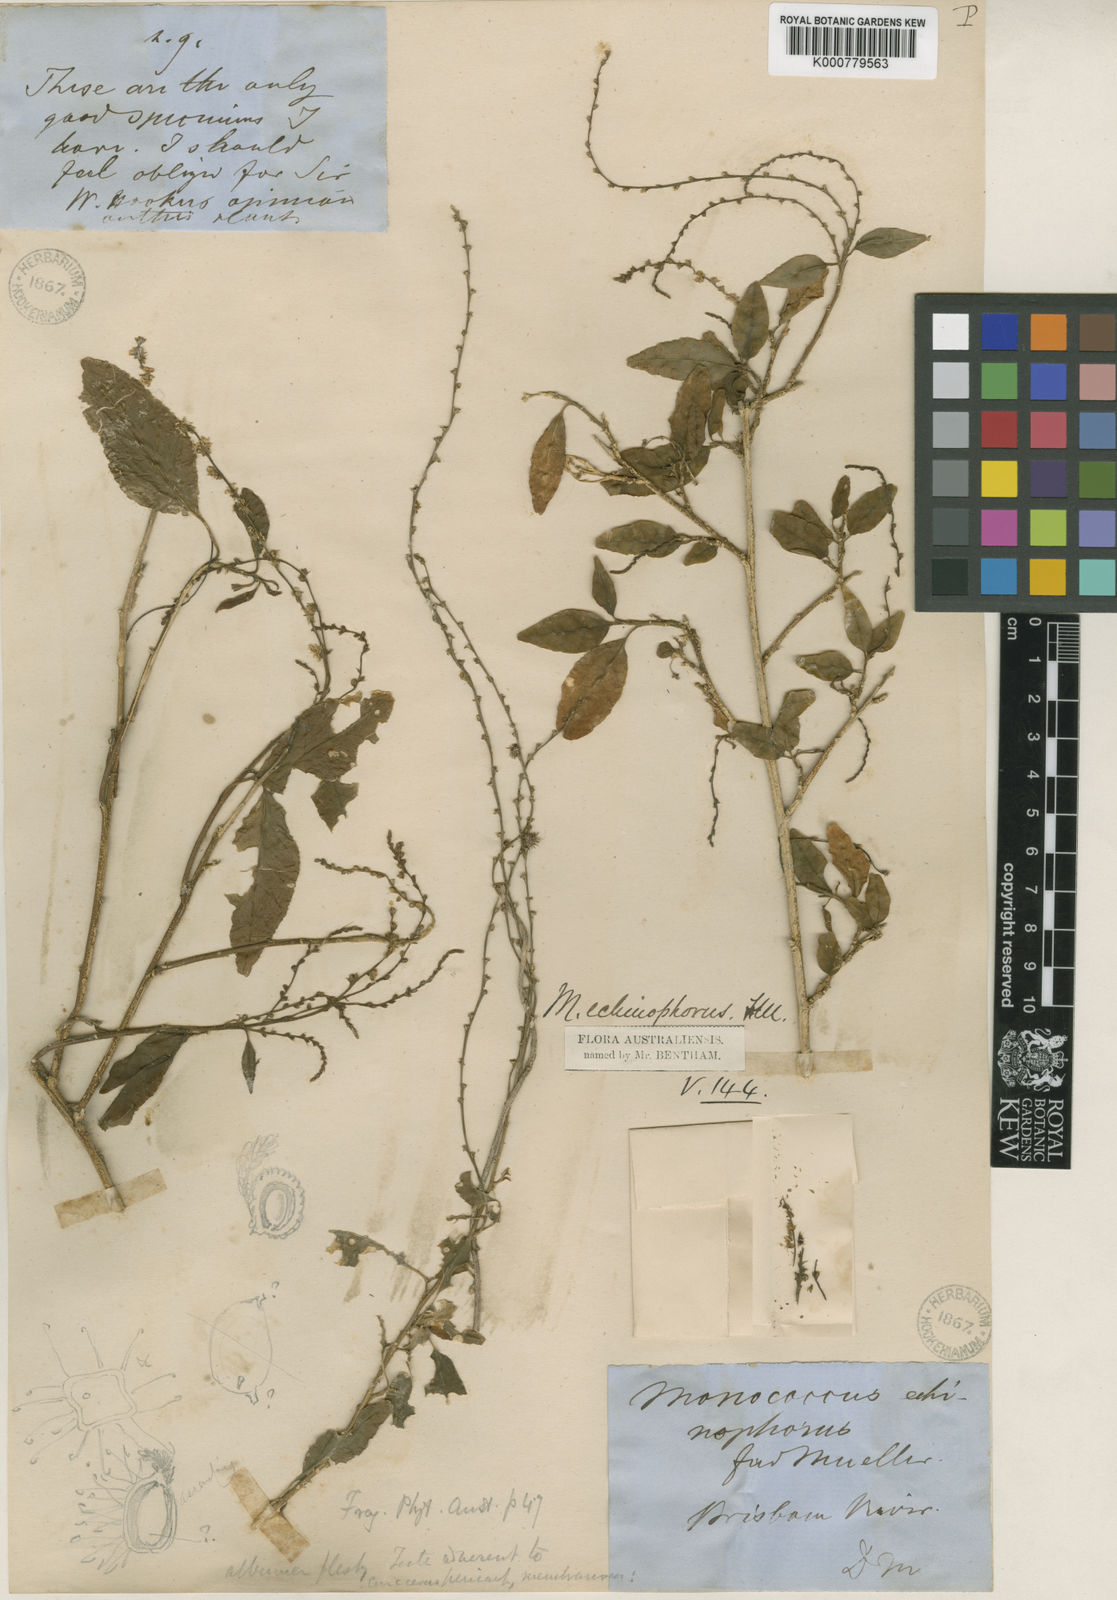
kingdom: Plantae
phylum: Tracheophyta
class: Magnoliopsida
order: Caryophyllales
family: Phytolaccaceae
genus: Monococcus
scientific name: Monococcus echinophorus
